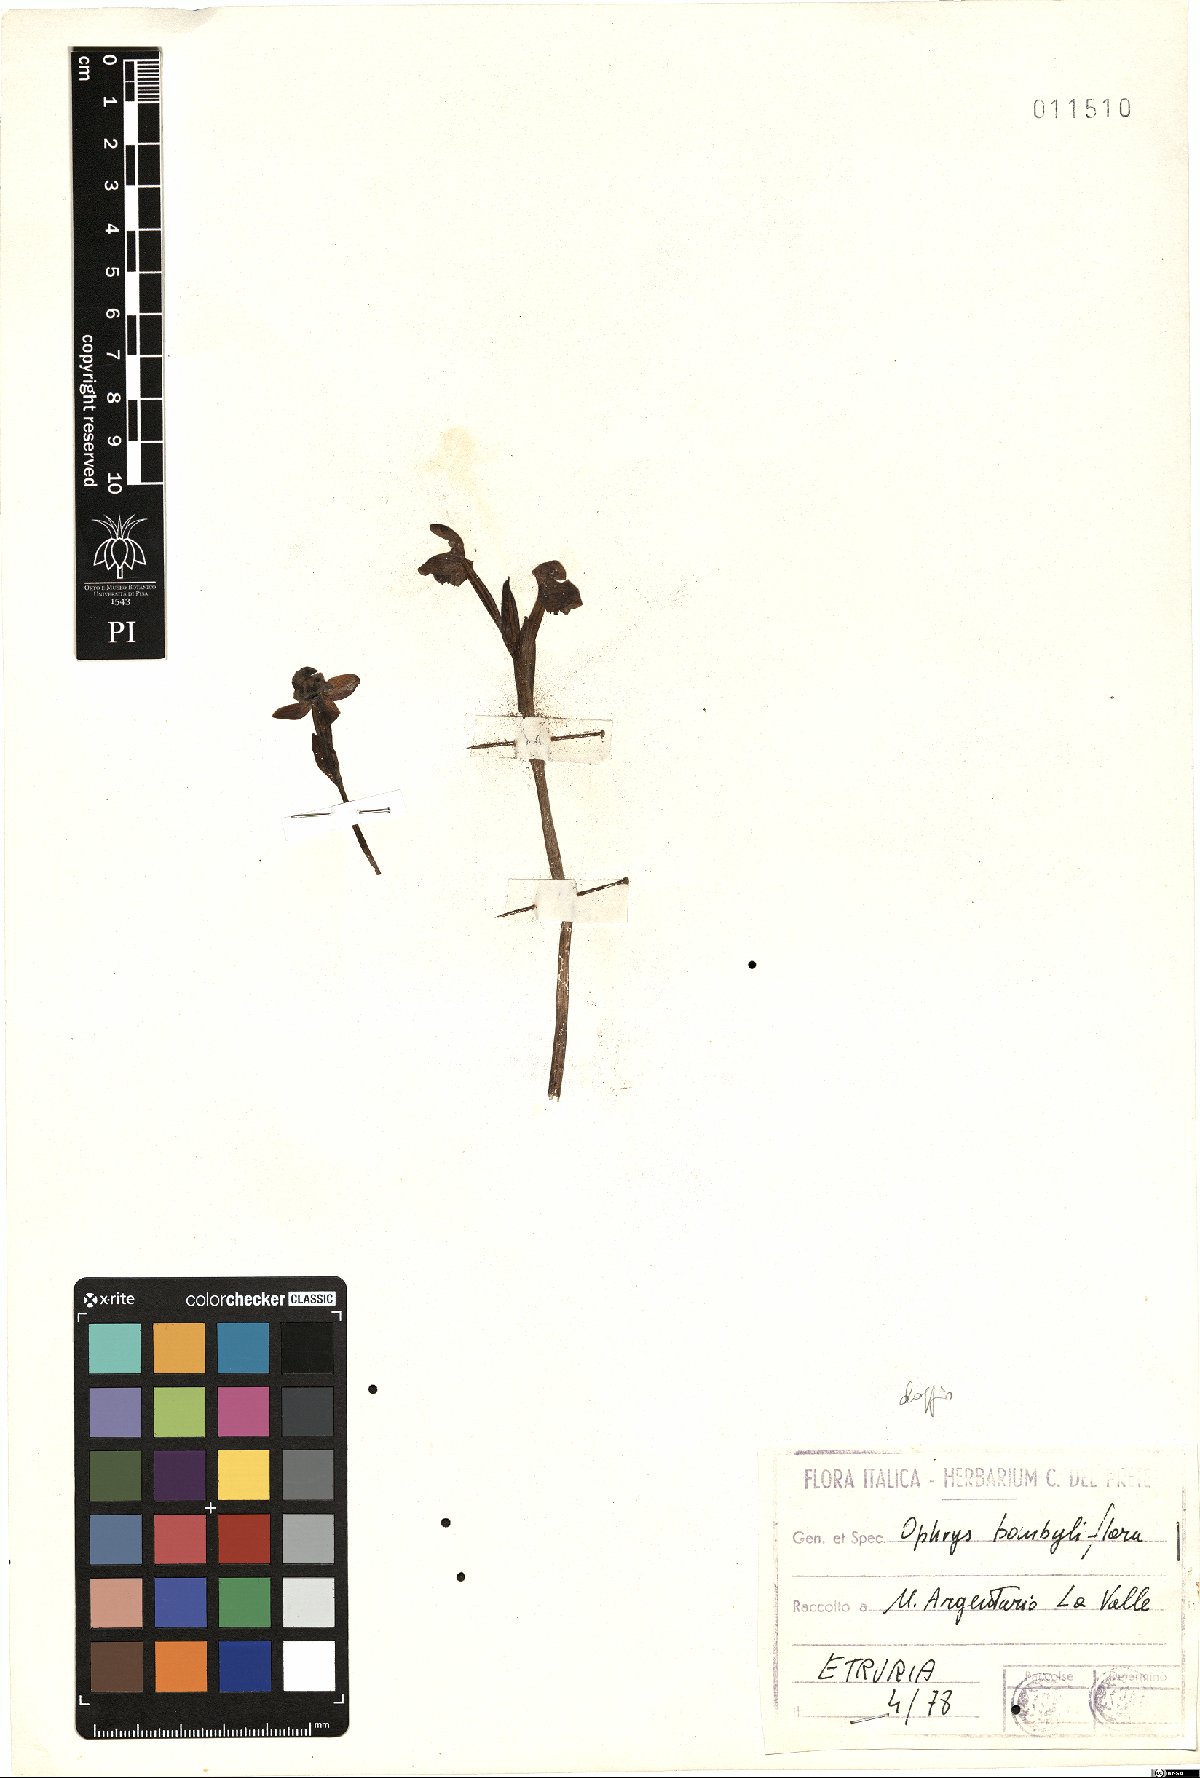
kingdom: Plantae
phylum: Tracheophyta
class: Liliopsida
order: Asparagales
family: Orchidaceae
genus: Ophrys
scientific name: Ophrys bombyliflora
